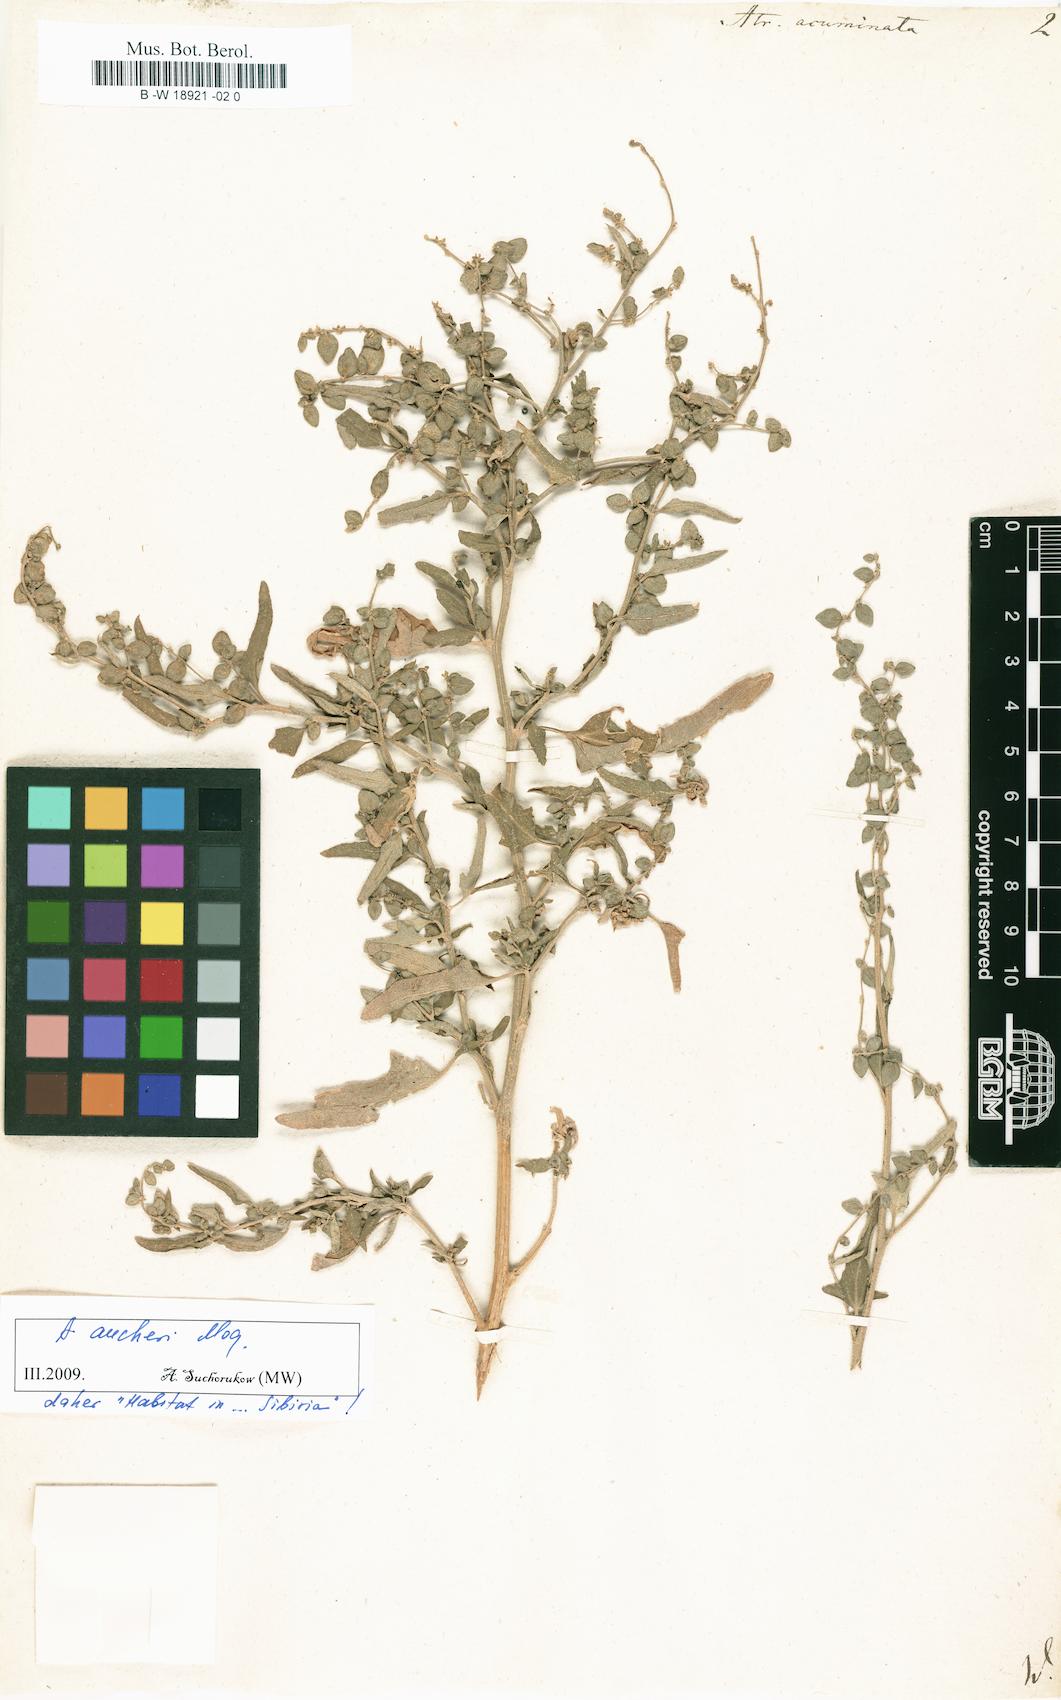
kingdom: Plantae
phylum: Tracheophyta
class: Magnoliopsida
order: Caryophyllales
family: Amaranthaceae
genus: Atriplex
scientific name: Atriplex hortensis
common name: Garden orache
